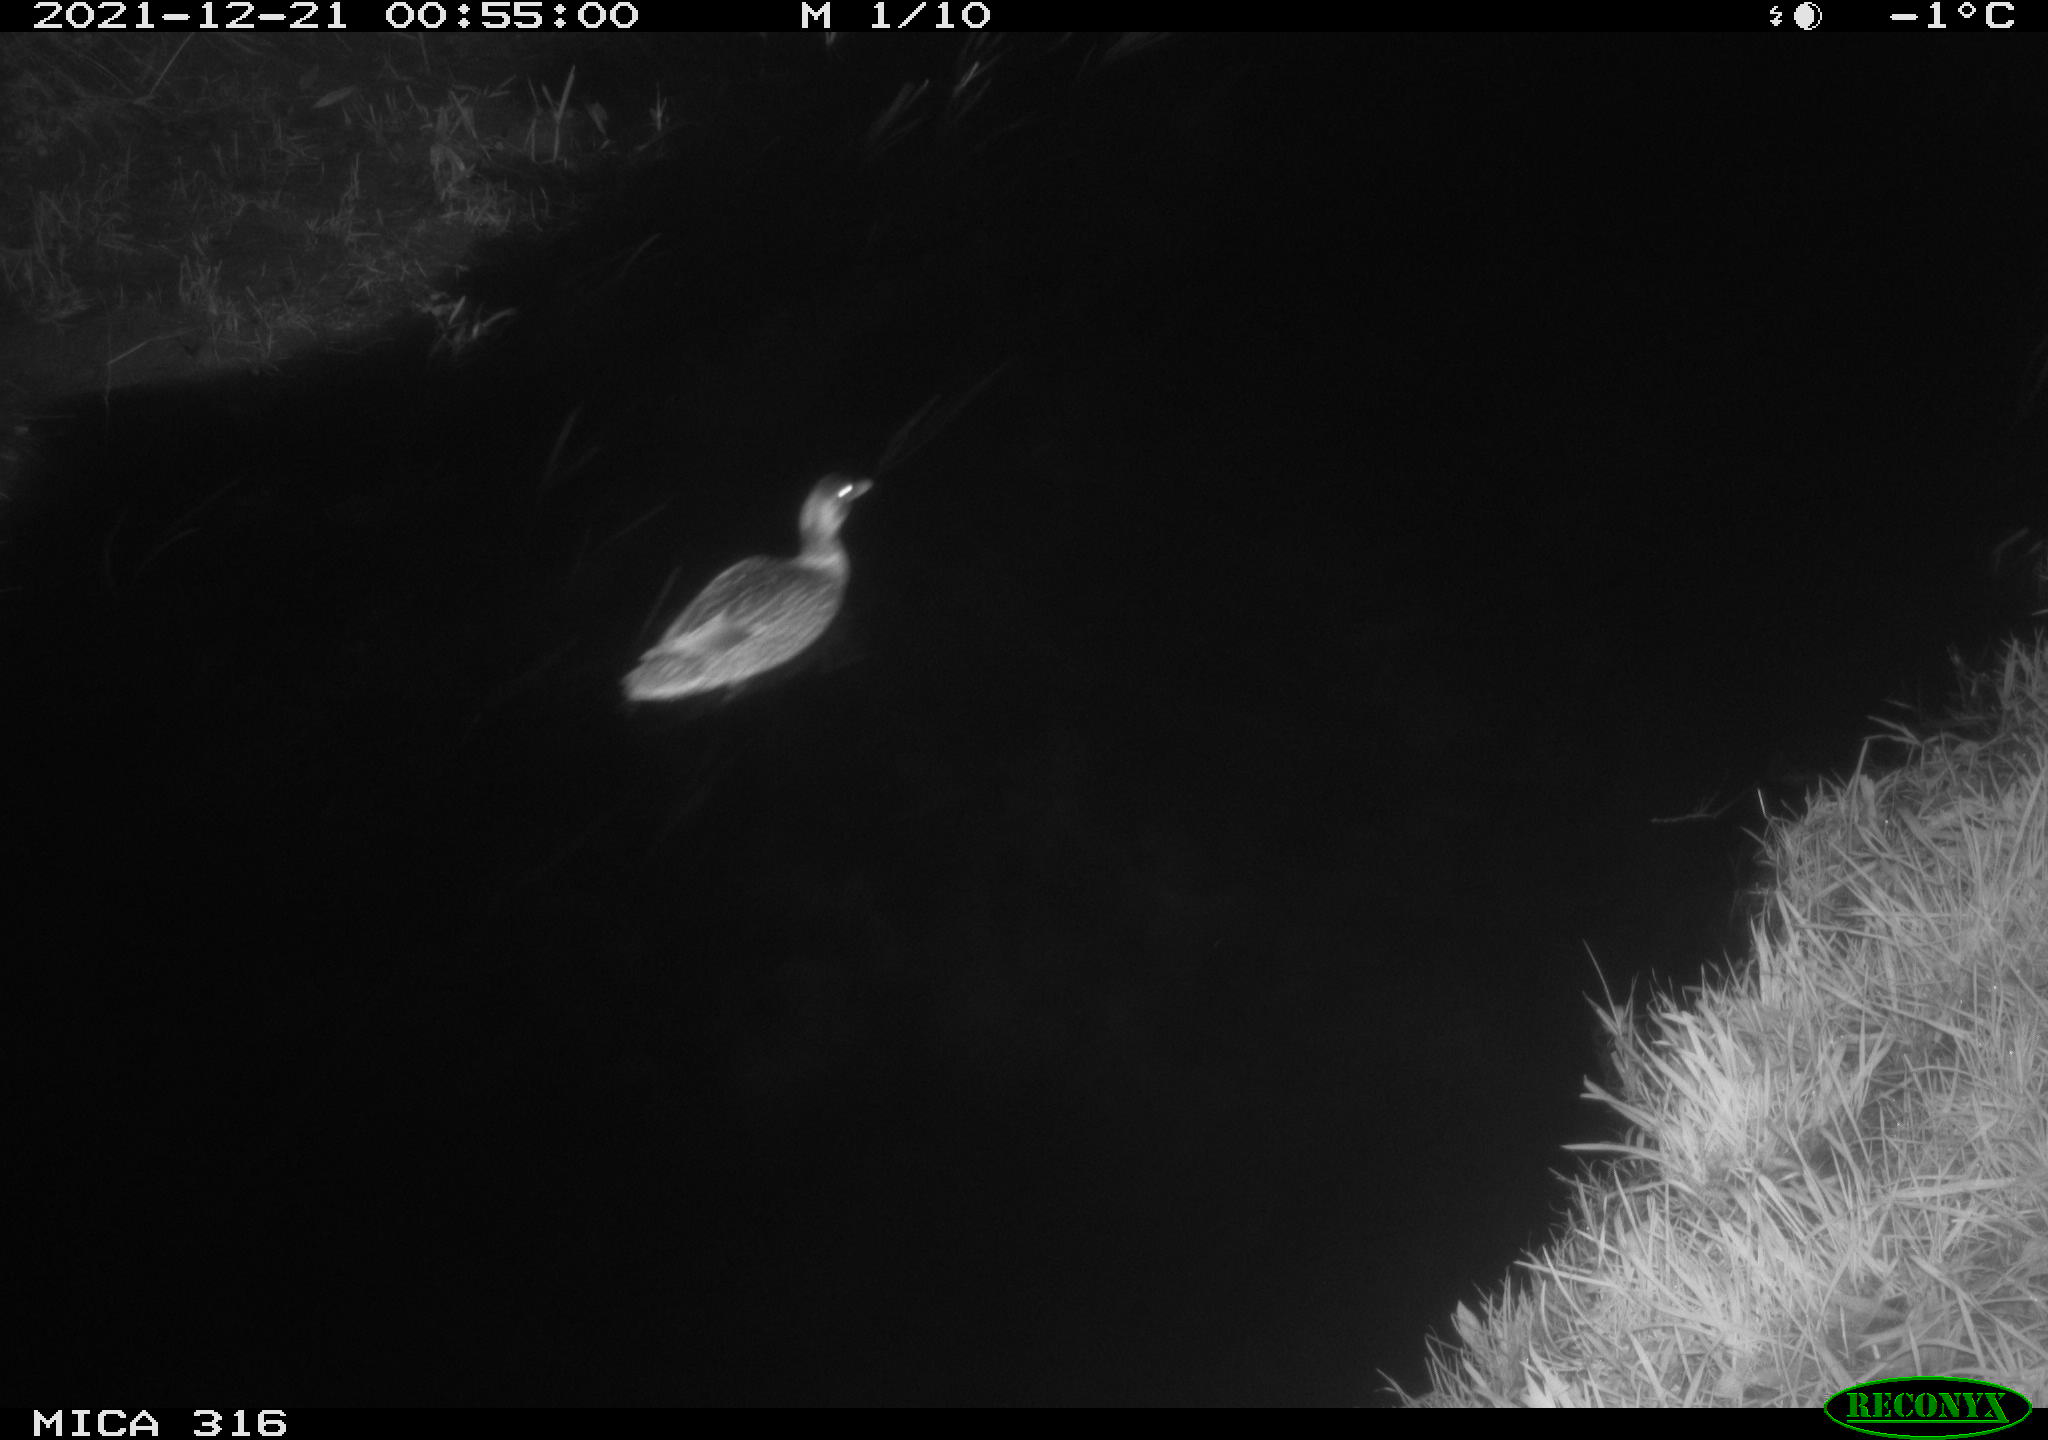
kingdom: Animalia
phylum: Chordata
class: Aves
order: Anseriformes
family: Anatidae
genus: Anas
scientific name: Anas
